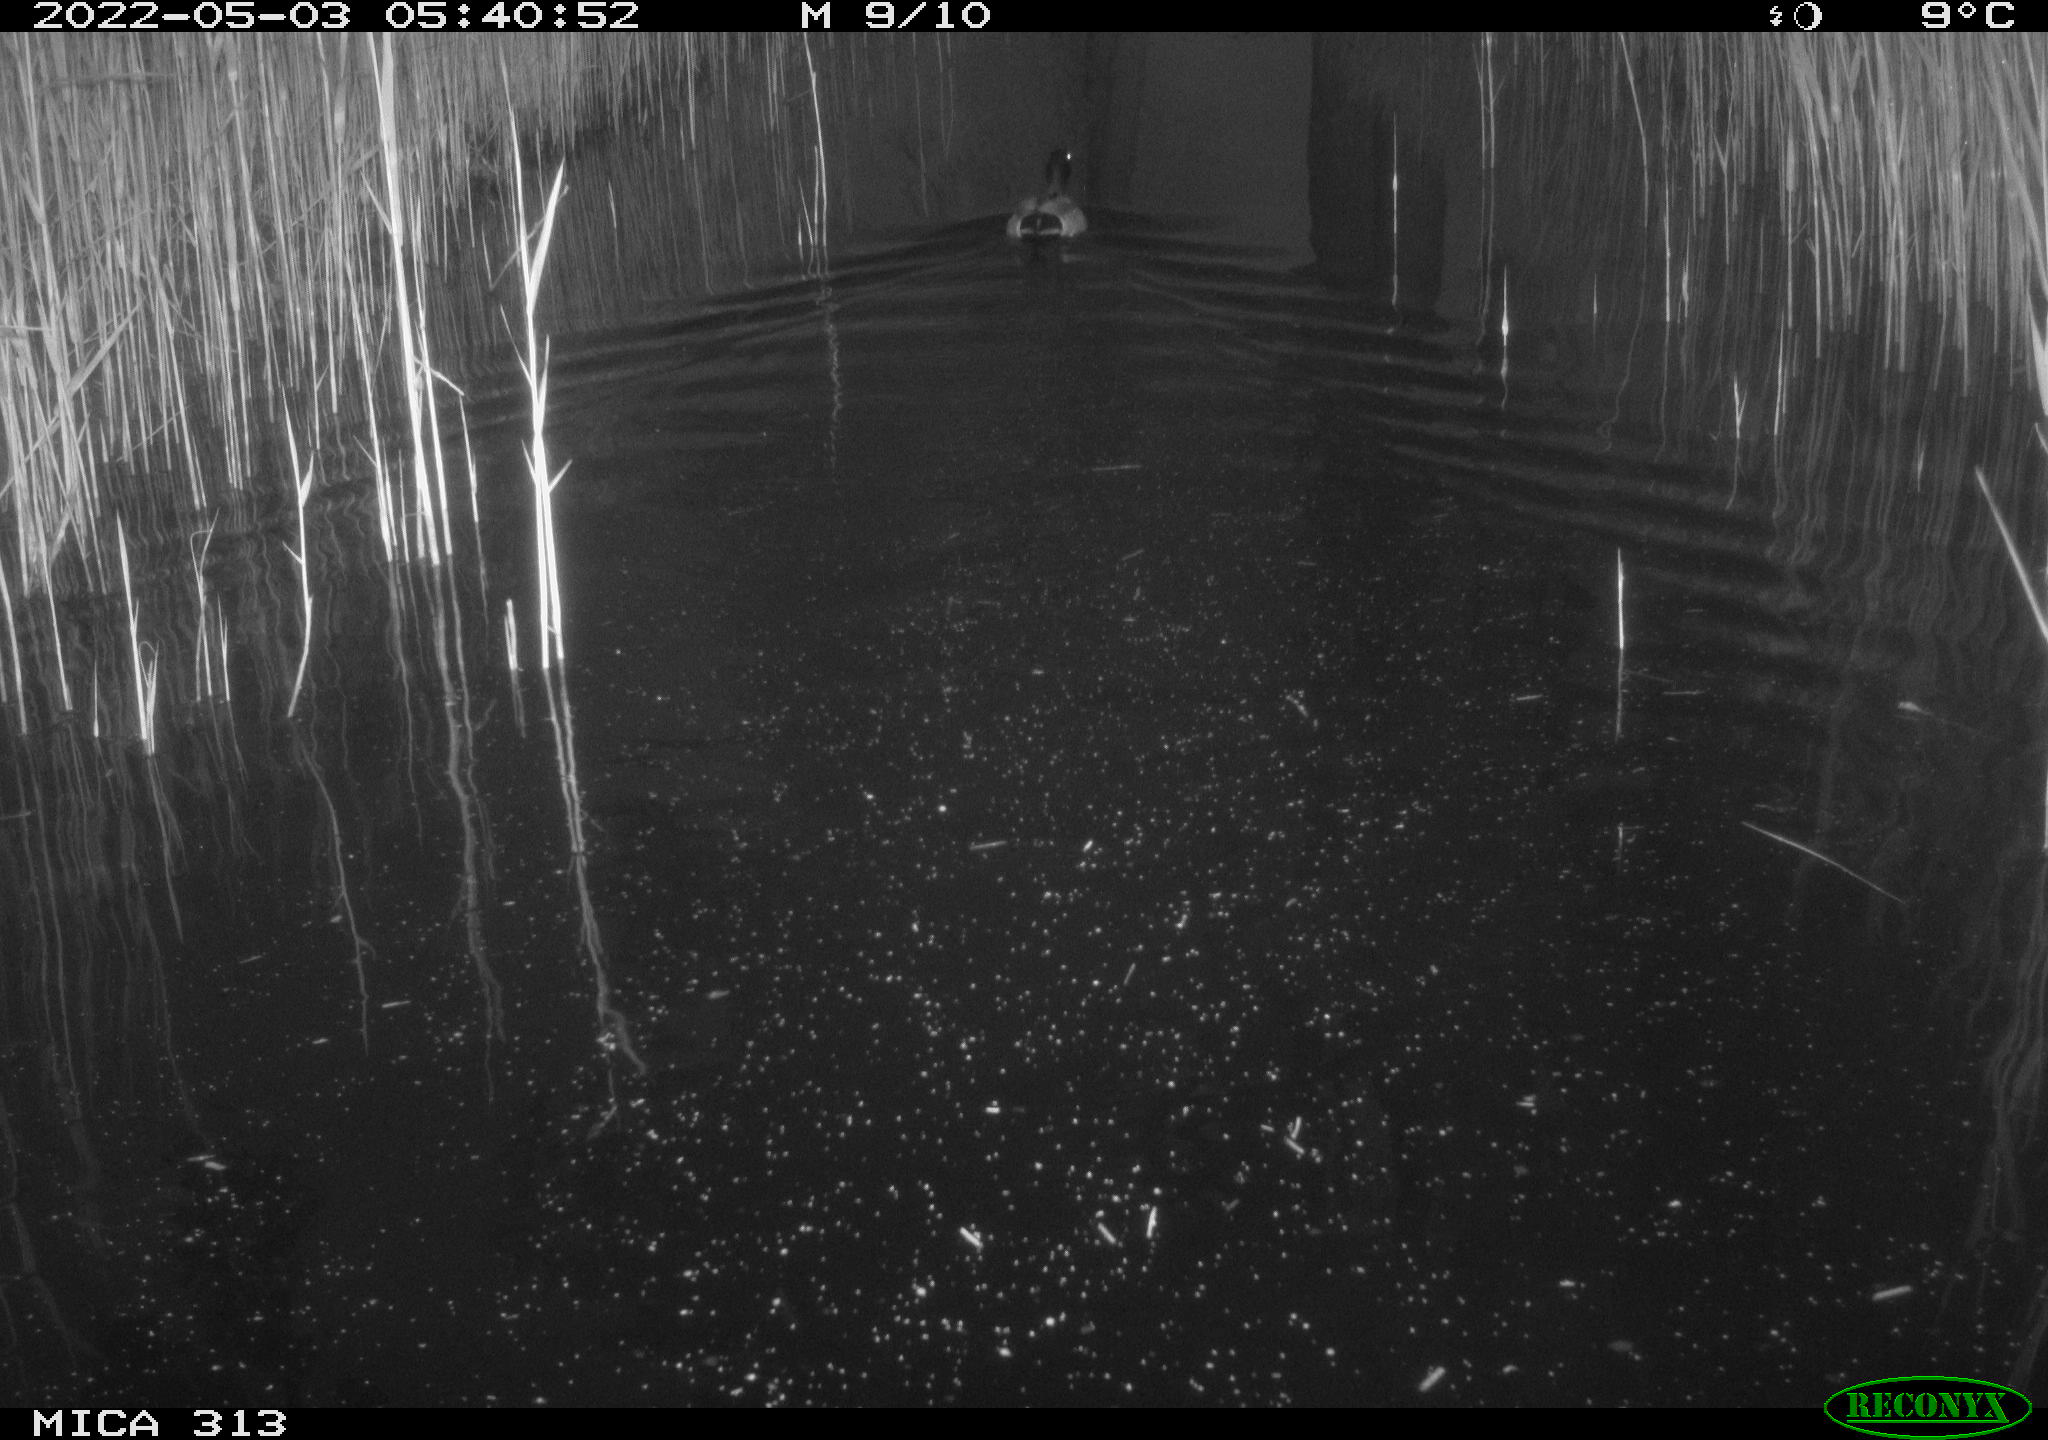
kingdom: Animalia
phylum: Chordata
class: Aves
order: Anseriformes
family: Anatidae
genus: Anas
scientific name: Anas platyrhynchos
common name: Mallard
